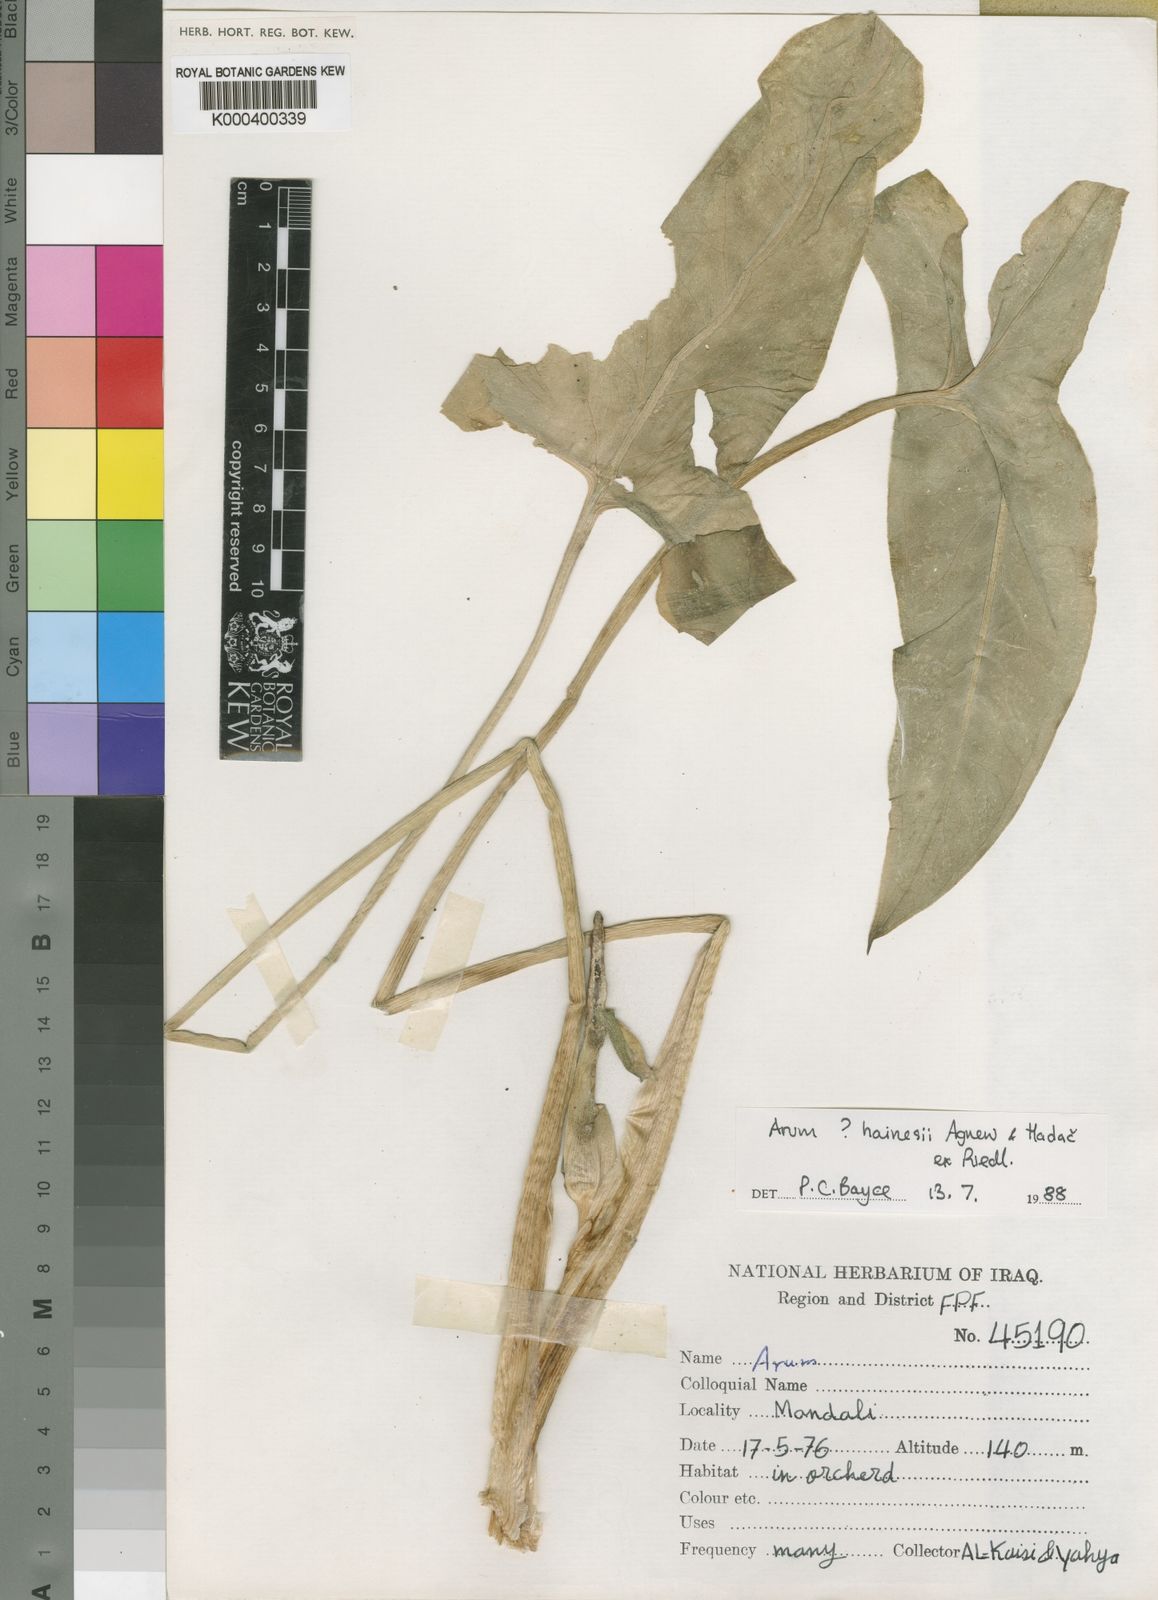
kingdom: Plantae
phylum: Tracheophyta
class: Liliopsida
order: Alismatales
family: Araceae
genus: Arum
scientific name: Arum hainesii
